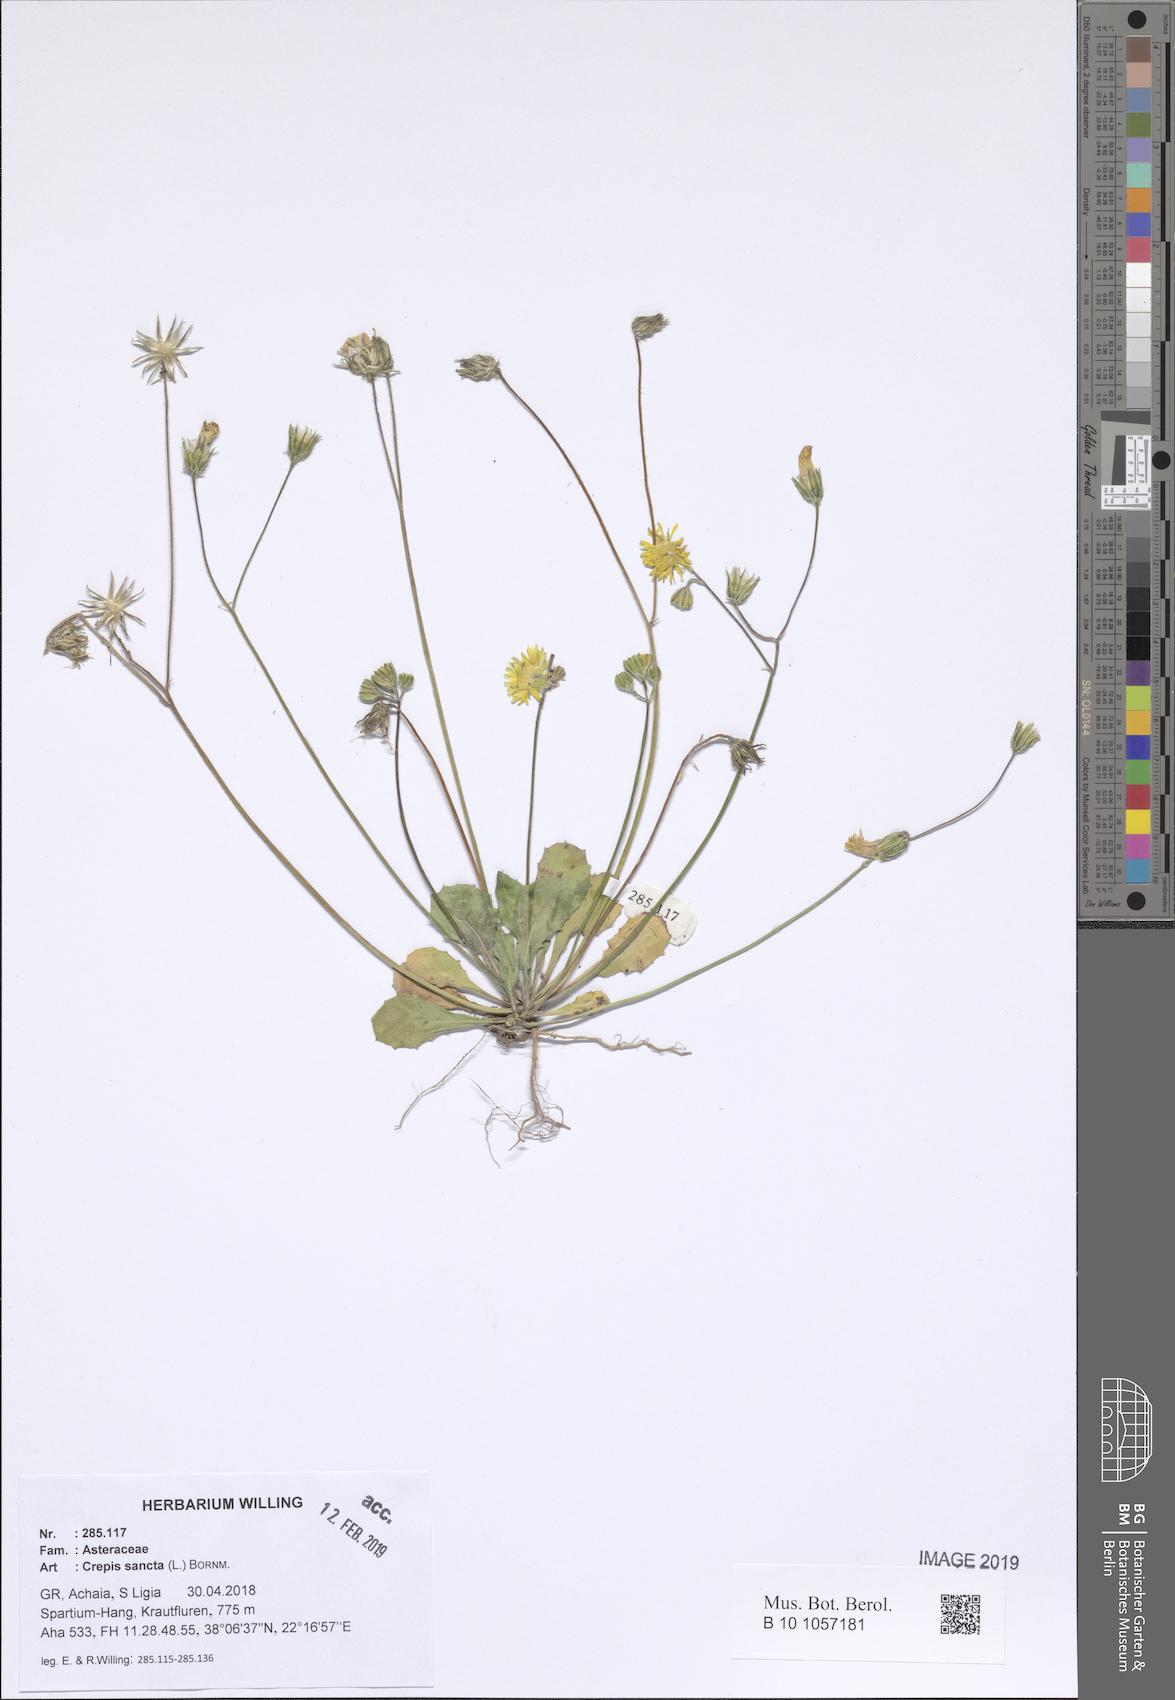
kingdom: Plantae
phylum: Tracheophyta
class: Liliopsida
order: Asparagales
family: Asphodelaceae
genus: Asphodelus
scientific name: Asphodelus fistulosus
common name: Onionweed
